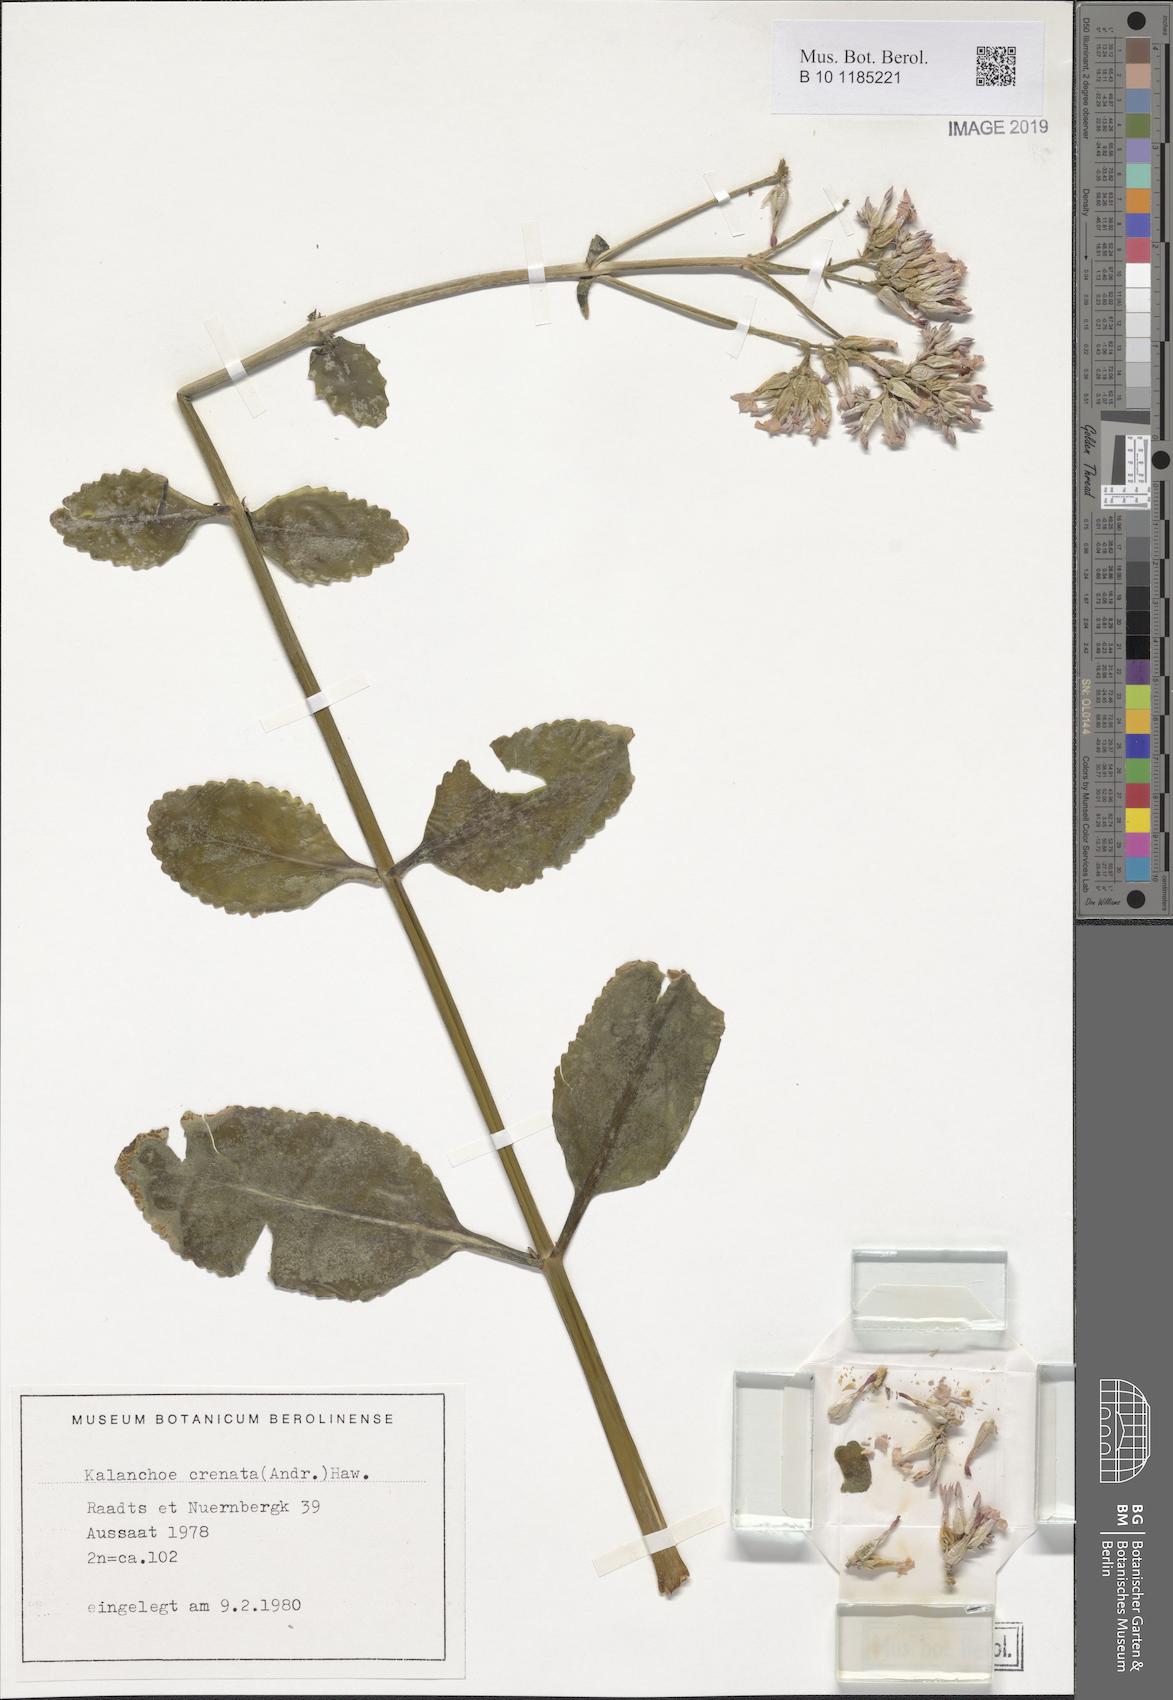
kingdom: Plantae
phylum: Tracheophyta
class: Magnoliopsida
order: Saxifragales
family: Crassulaceae
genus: Kalanchoe
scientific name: Kalanchoe crenata
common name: Neverdie
